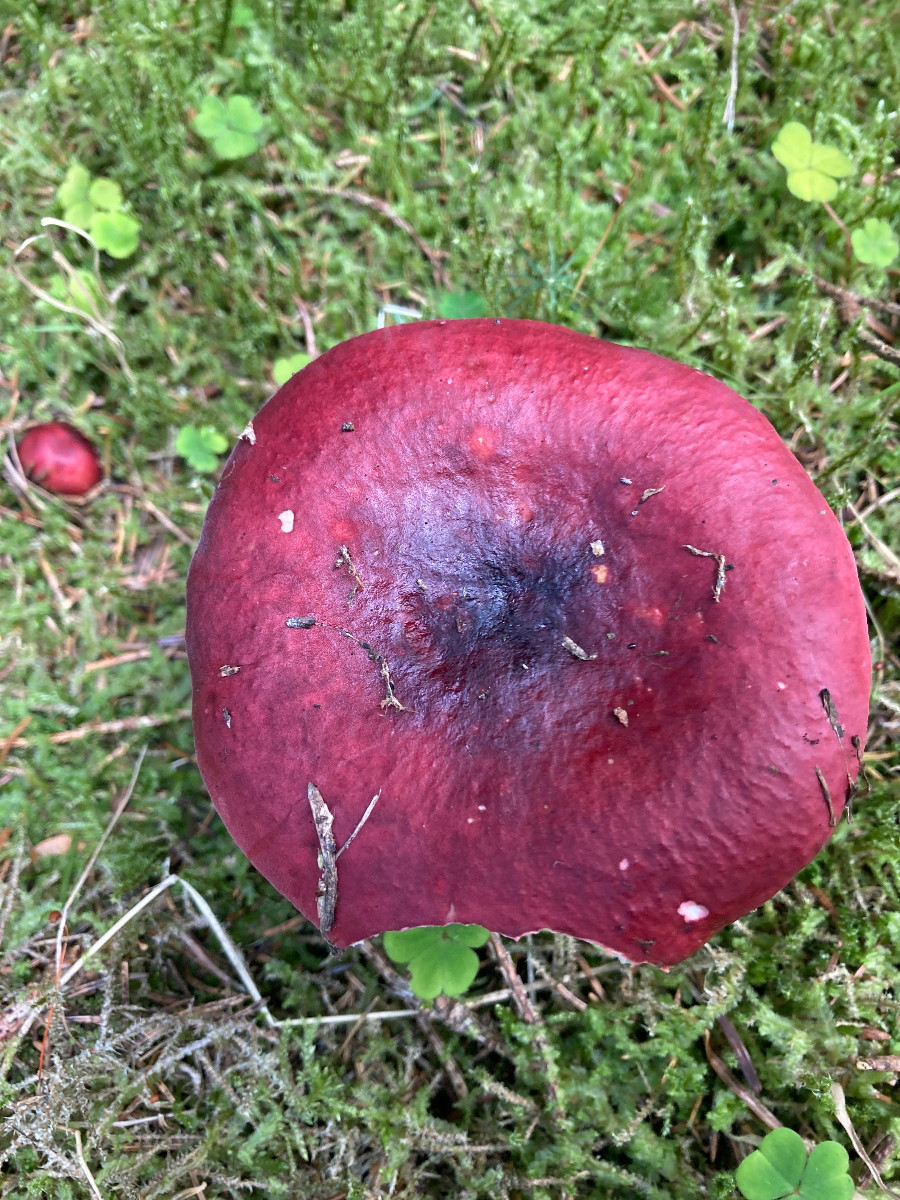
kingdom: Fungi
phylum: Basidiomycota
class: Agaricomycetes
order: Russulales
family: Russulaceae
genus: Russula
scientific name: Russula xerampelina
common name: hummer-skørhat
